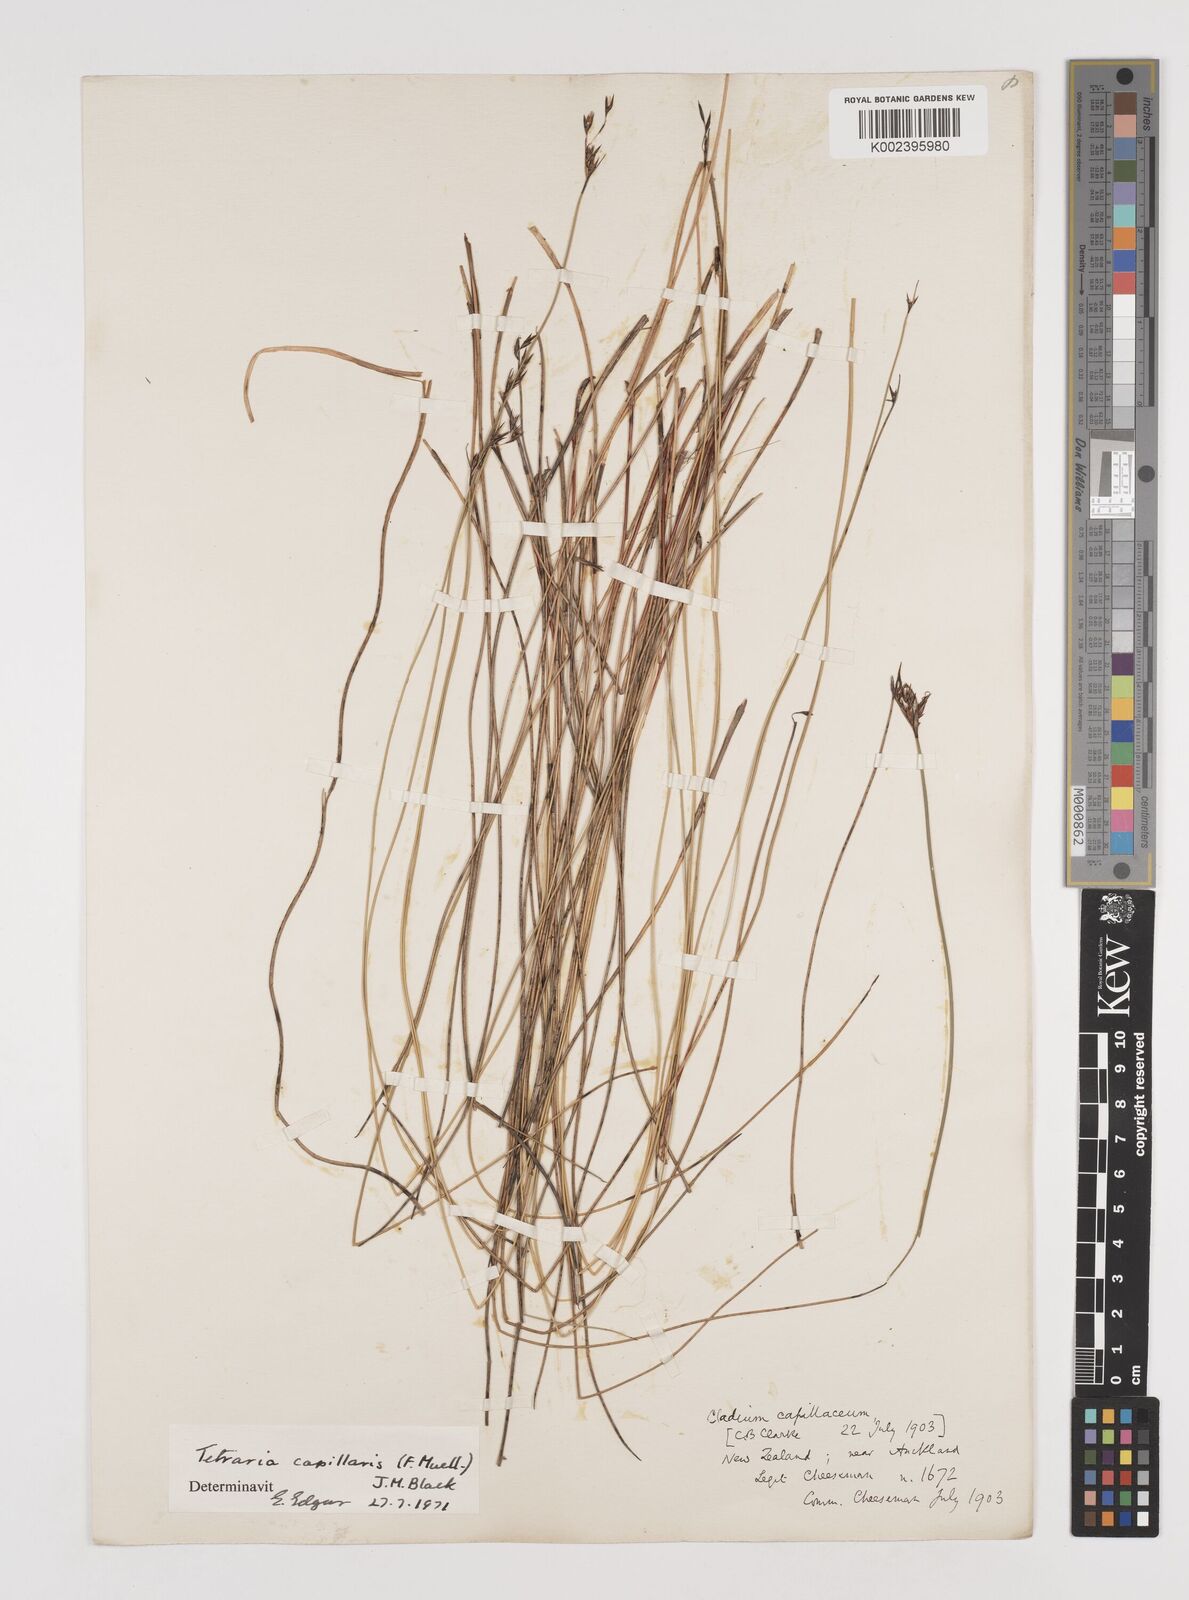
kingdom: Plantae
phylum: Tracheophyta
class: Liliopsida
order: Poales
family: Cyperaceae
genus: Tetraria
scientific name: Tetraria capillaris
